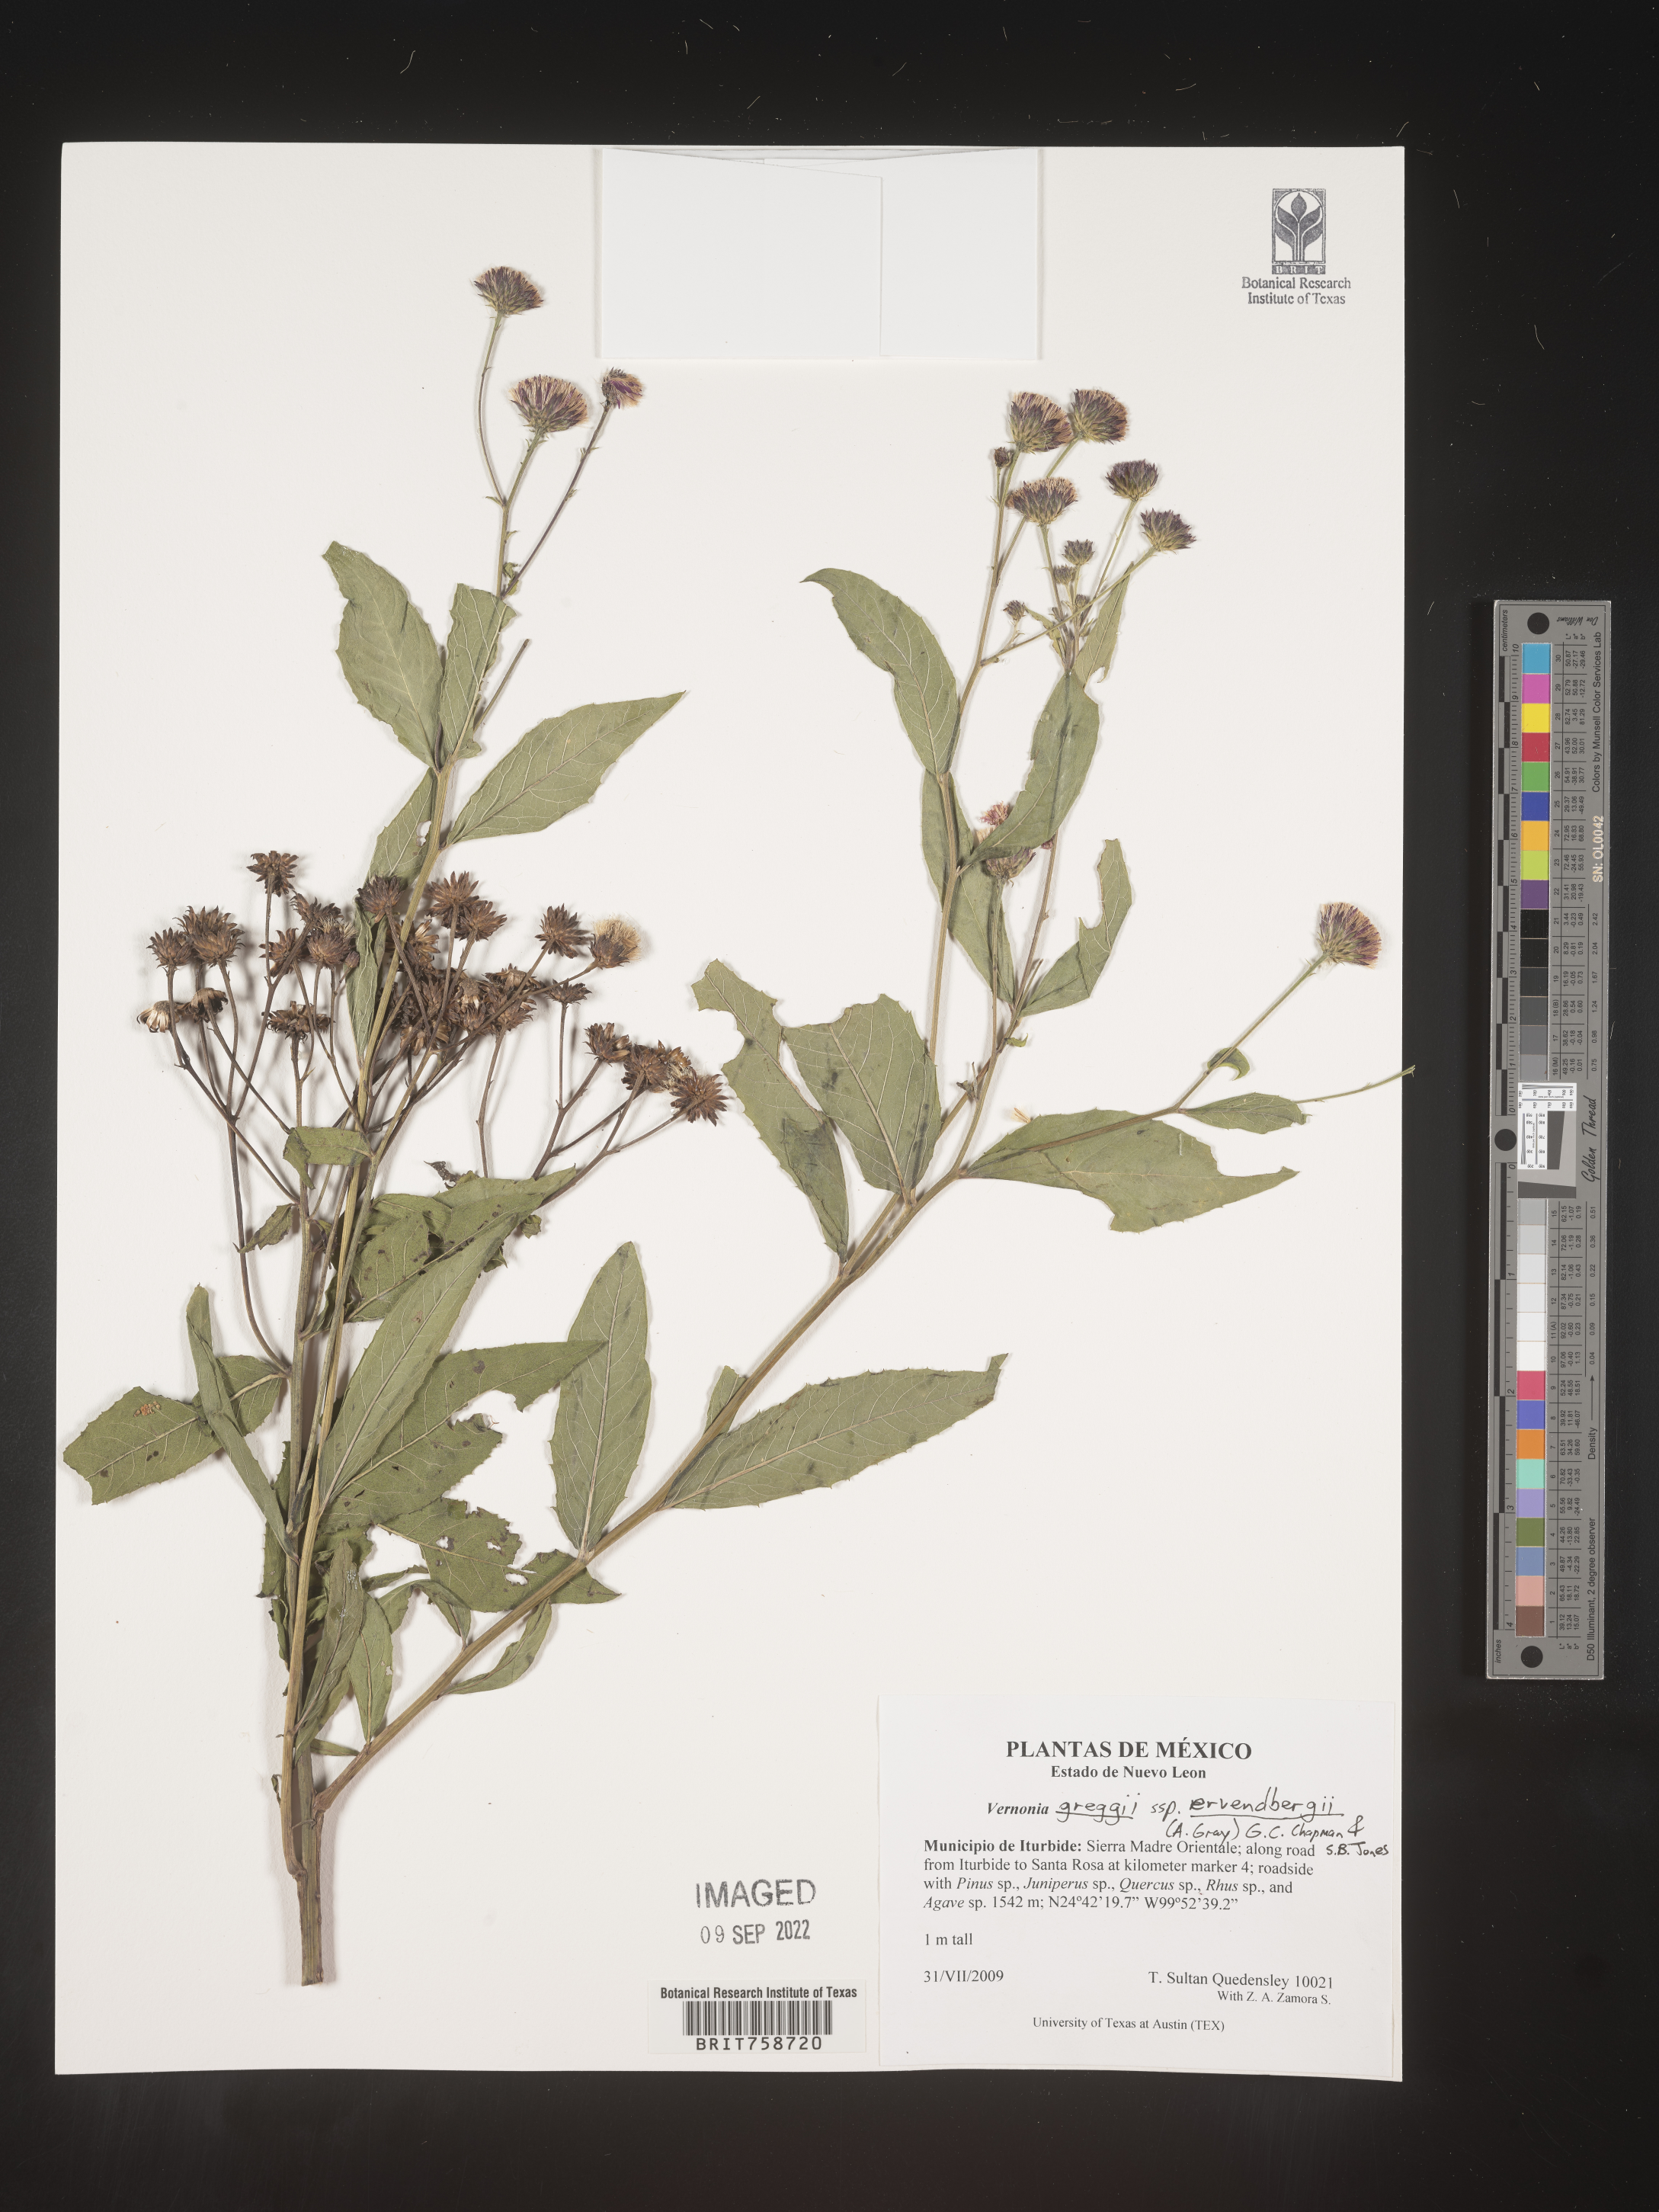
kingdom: Plantae
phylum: Tracheophyta
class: Magnoliopsida
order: Asterales
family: Asteraceae
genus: Vernonia
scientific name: Vernonia
